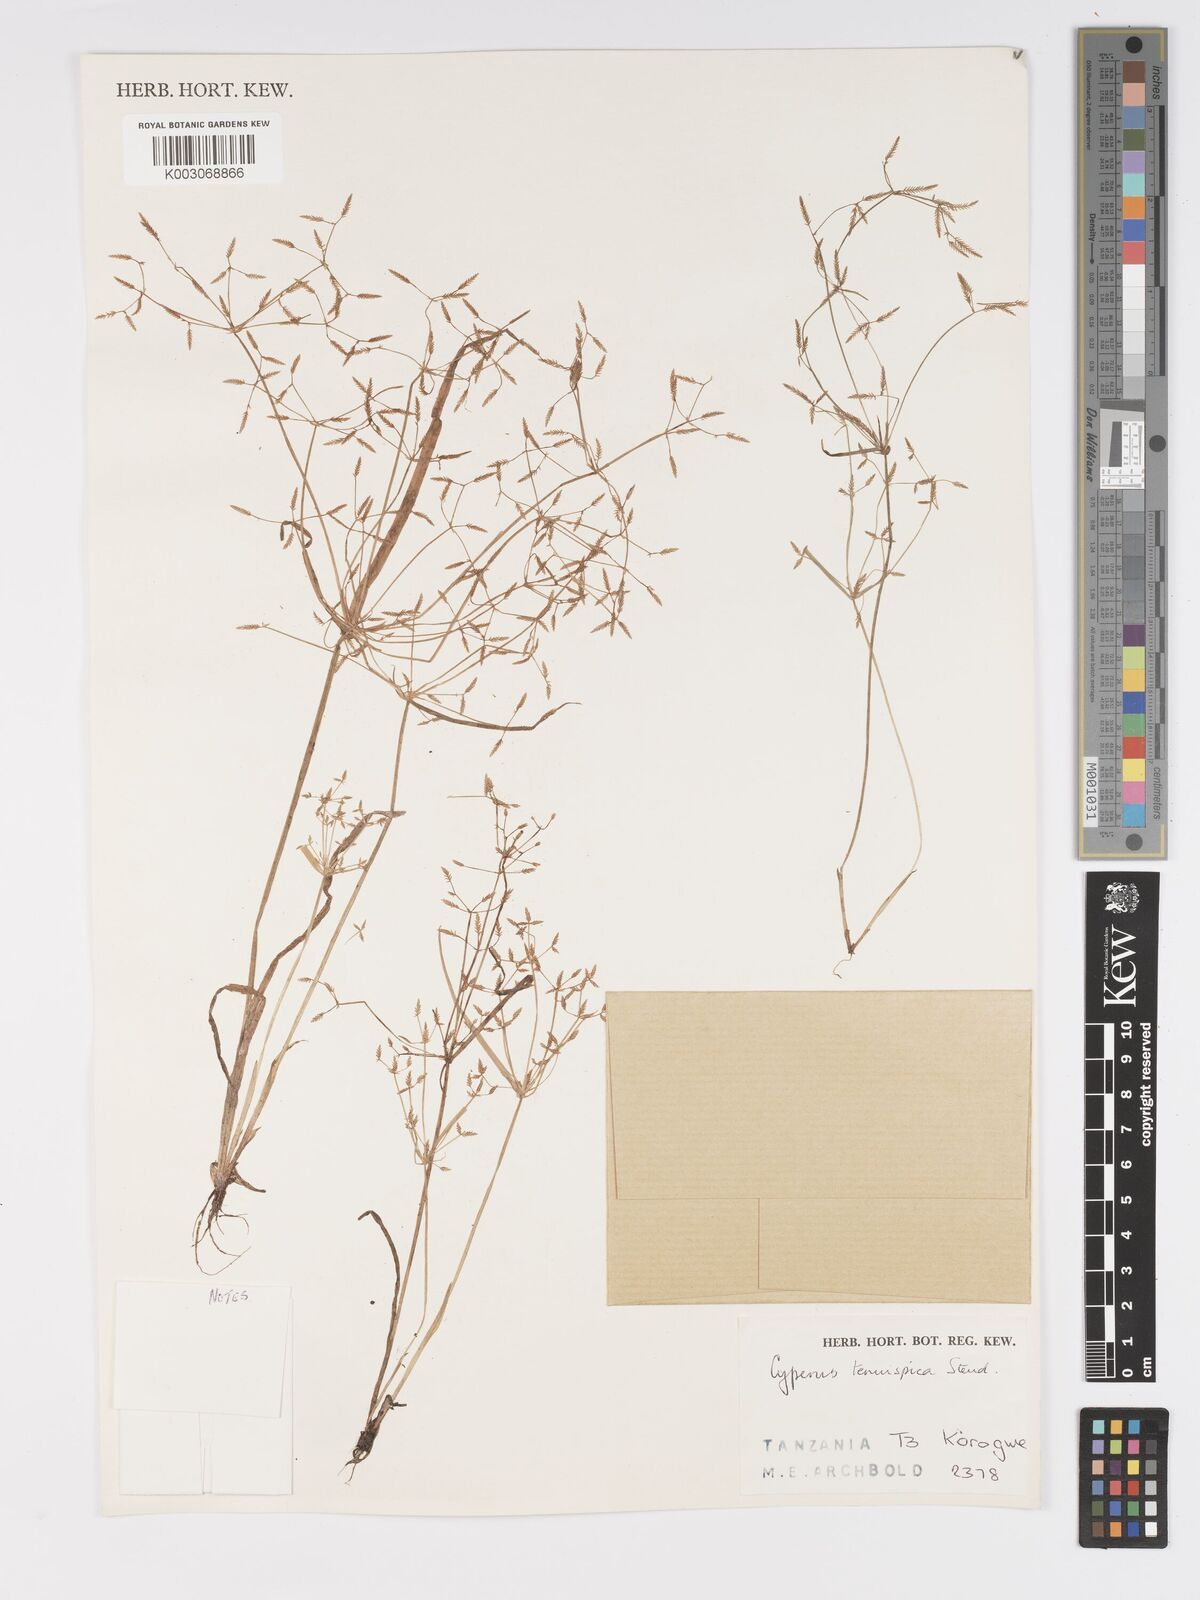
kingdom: Plantae
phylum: Tracheophyta
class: Liliopsida
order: Poales
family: Cyperaceae
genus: Cyperus
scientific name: Cyperus tenuispica
